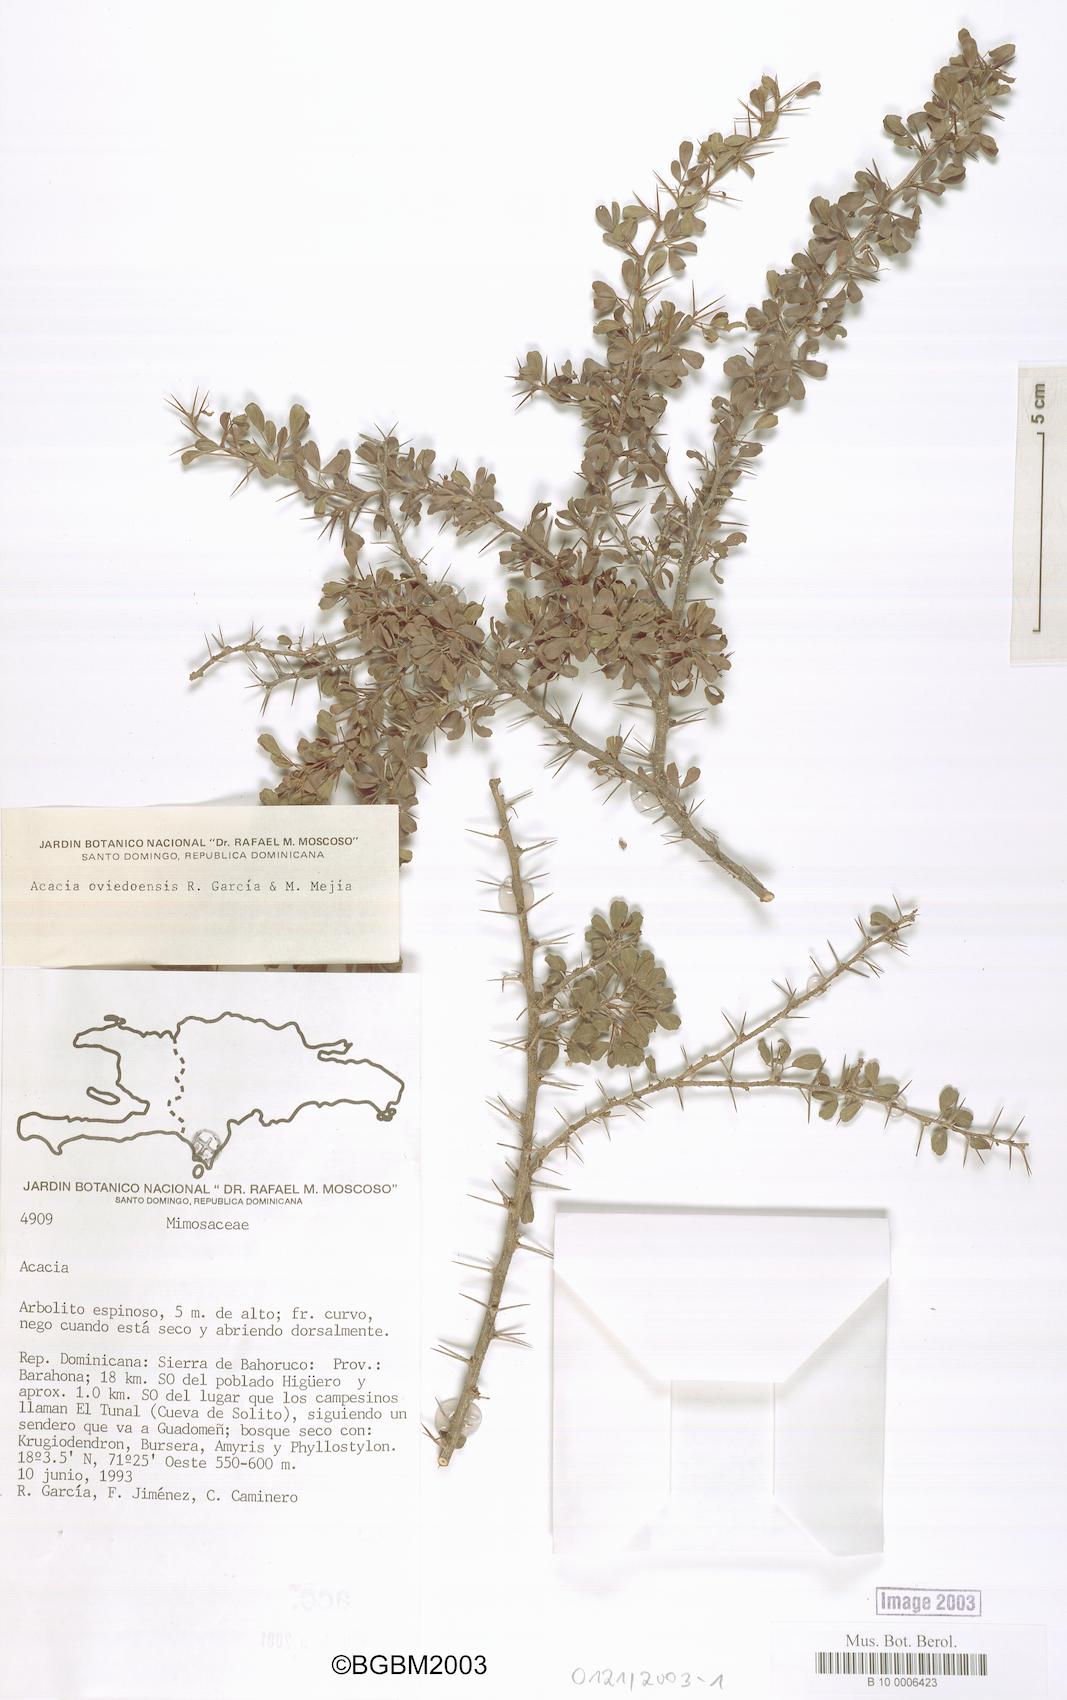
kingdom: Plantae
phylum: Tracheophyta
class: Magnoliopsida
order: Fabales
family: Fabaceae
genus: Vachellia
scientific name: Vachellia oviedoensis
